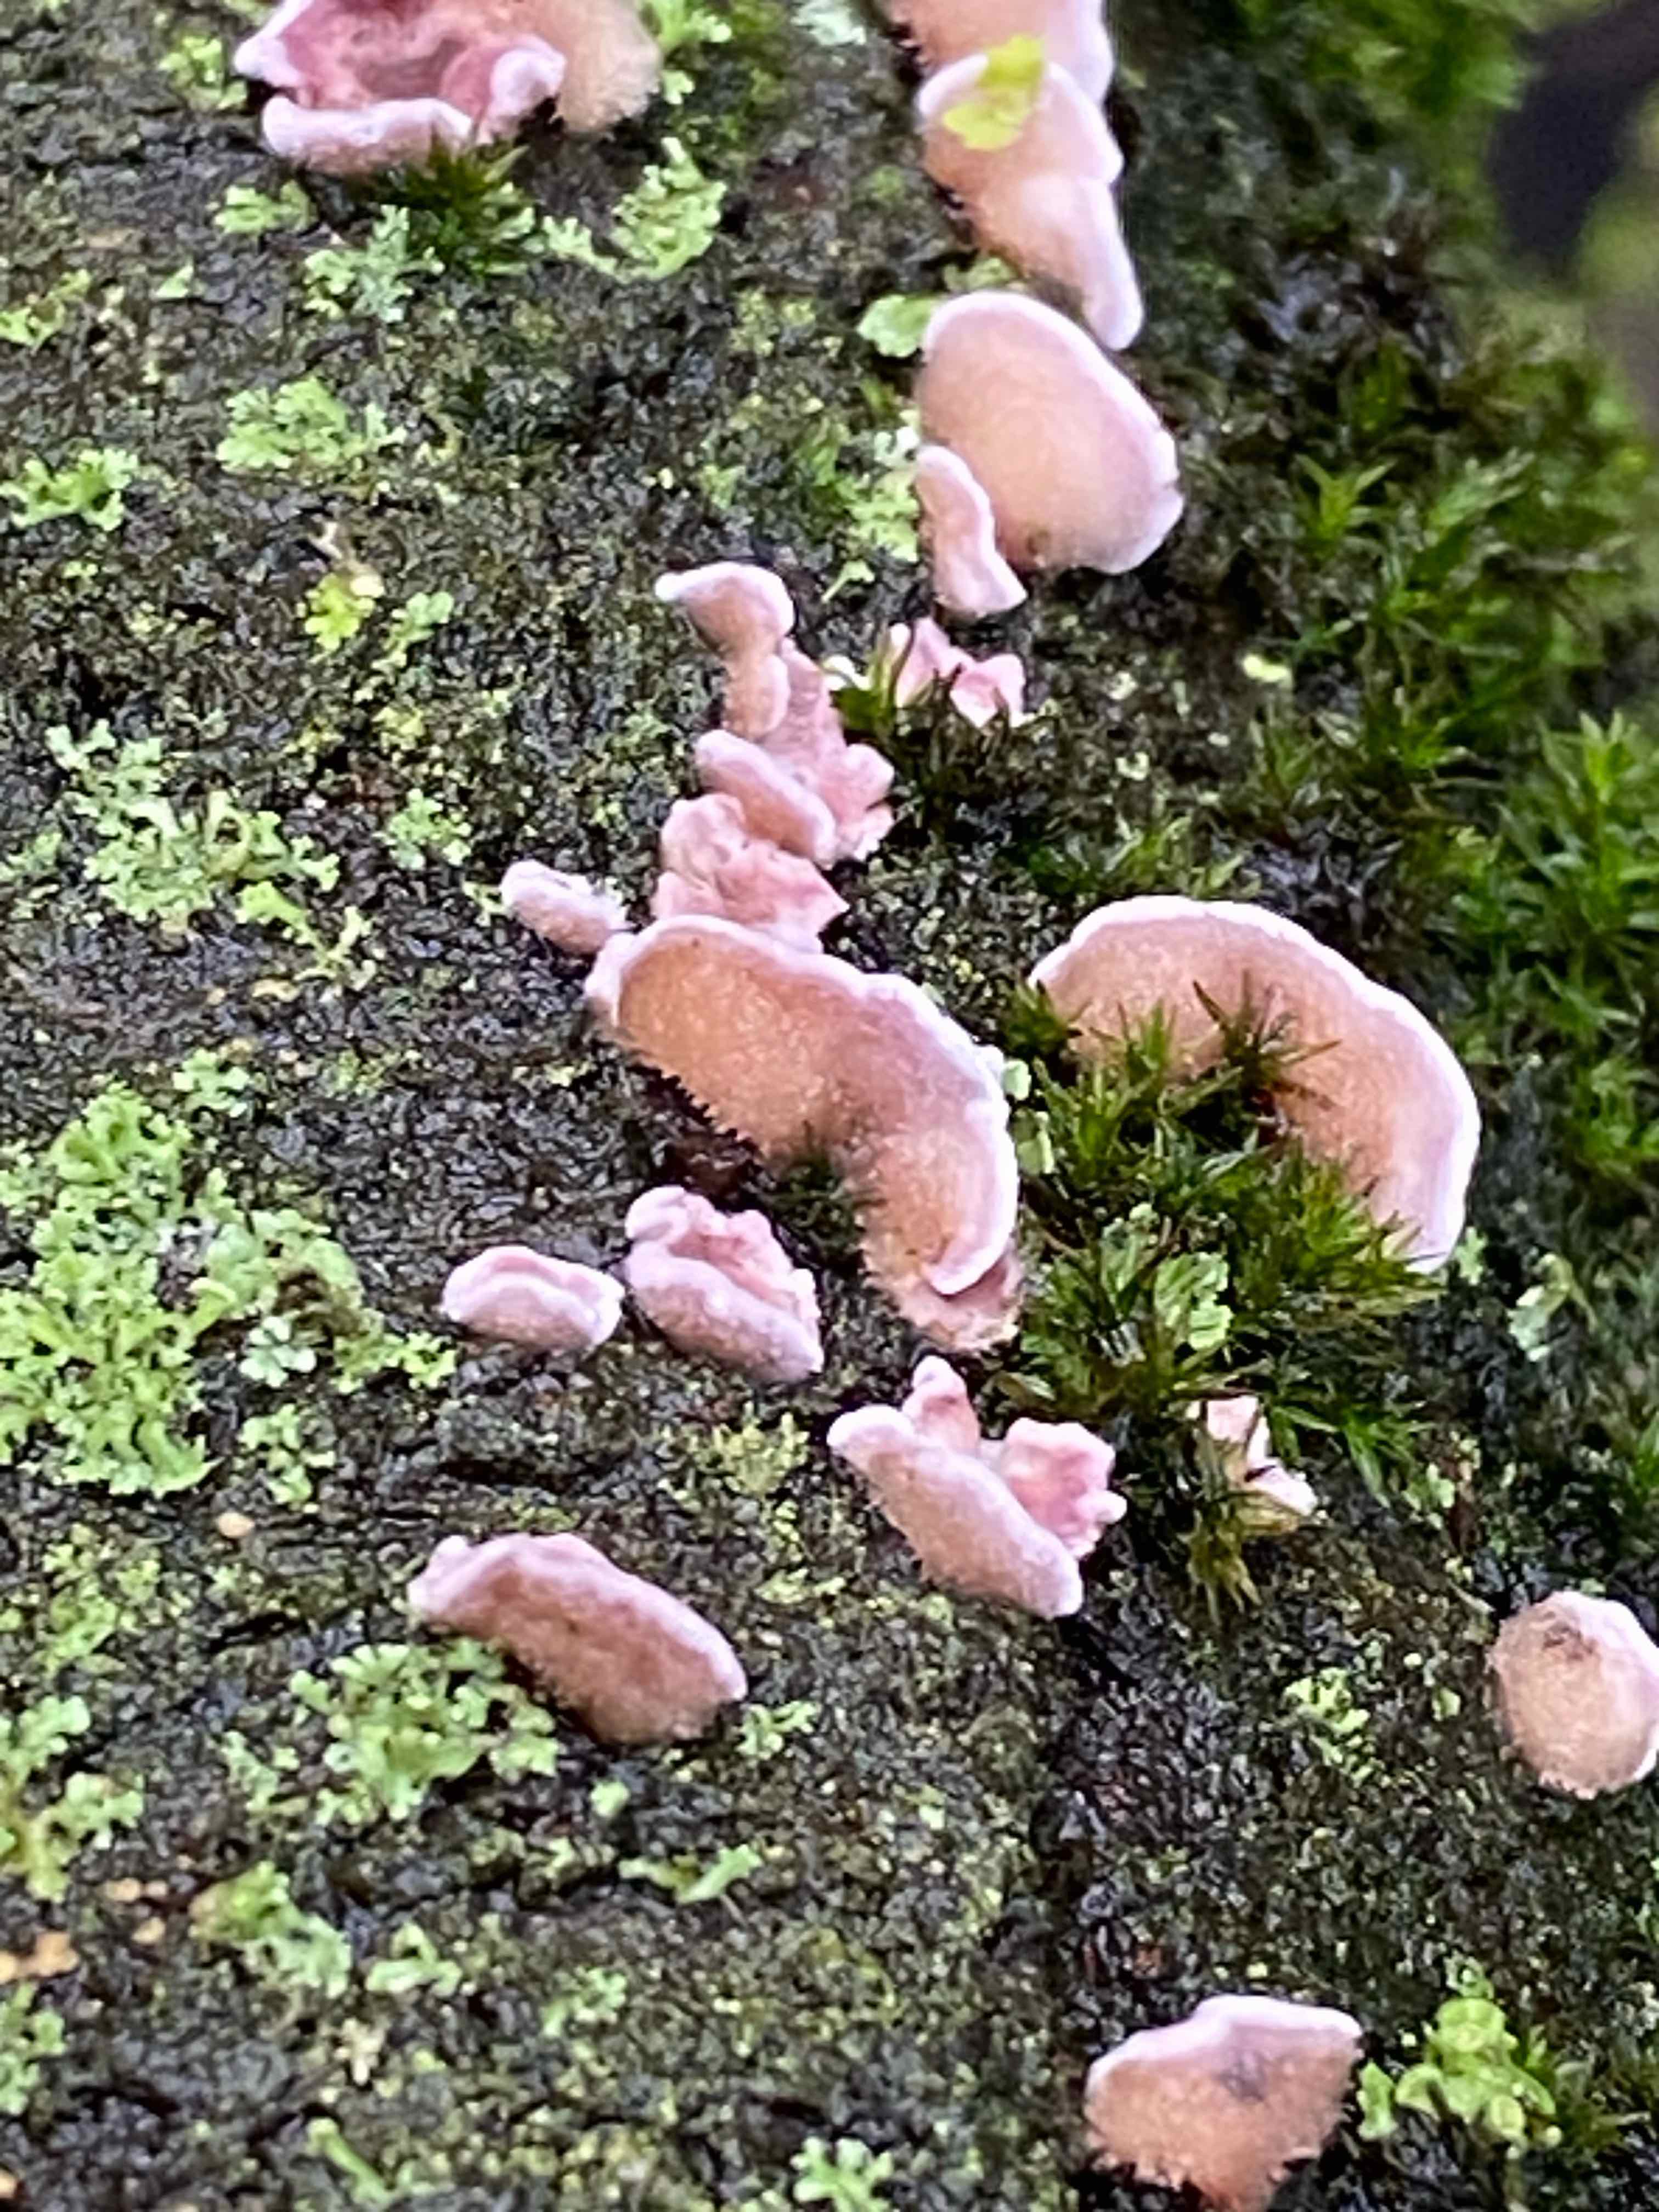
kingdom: Fungi
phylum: Basidiomycota
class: Agaricomycetes
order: Agaricales
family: Cyphellaceae
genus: Chondrostereum
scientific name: Chondrostereum purpureum
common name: purpurlædersvamp
